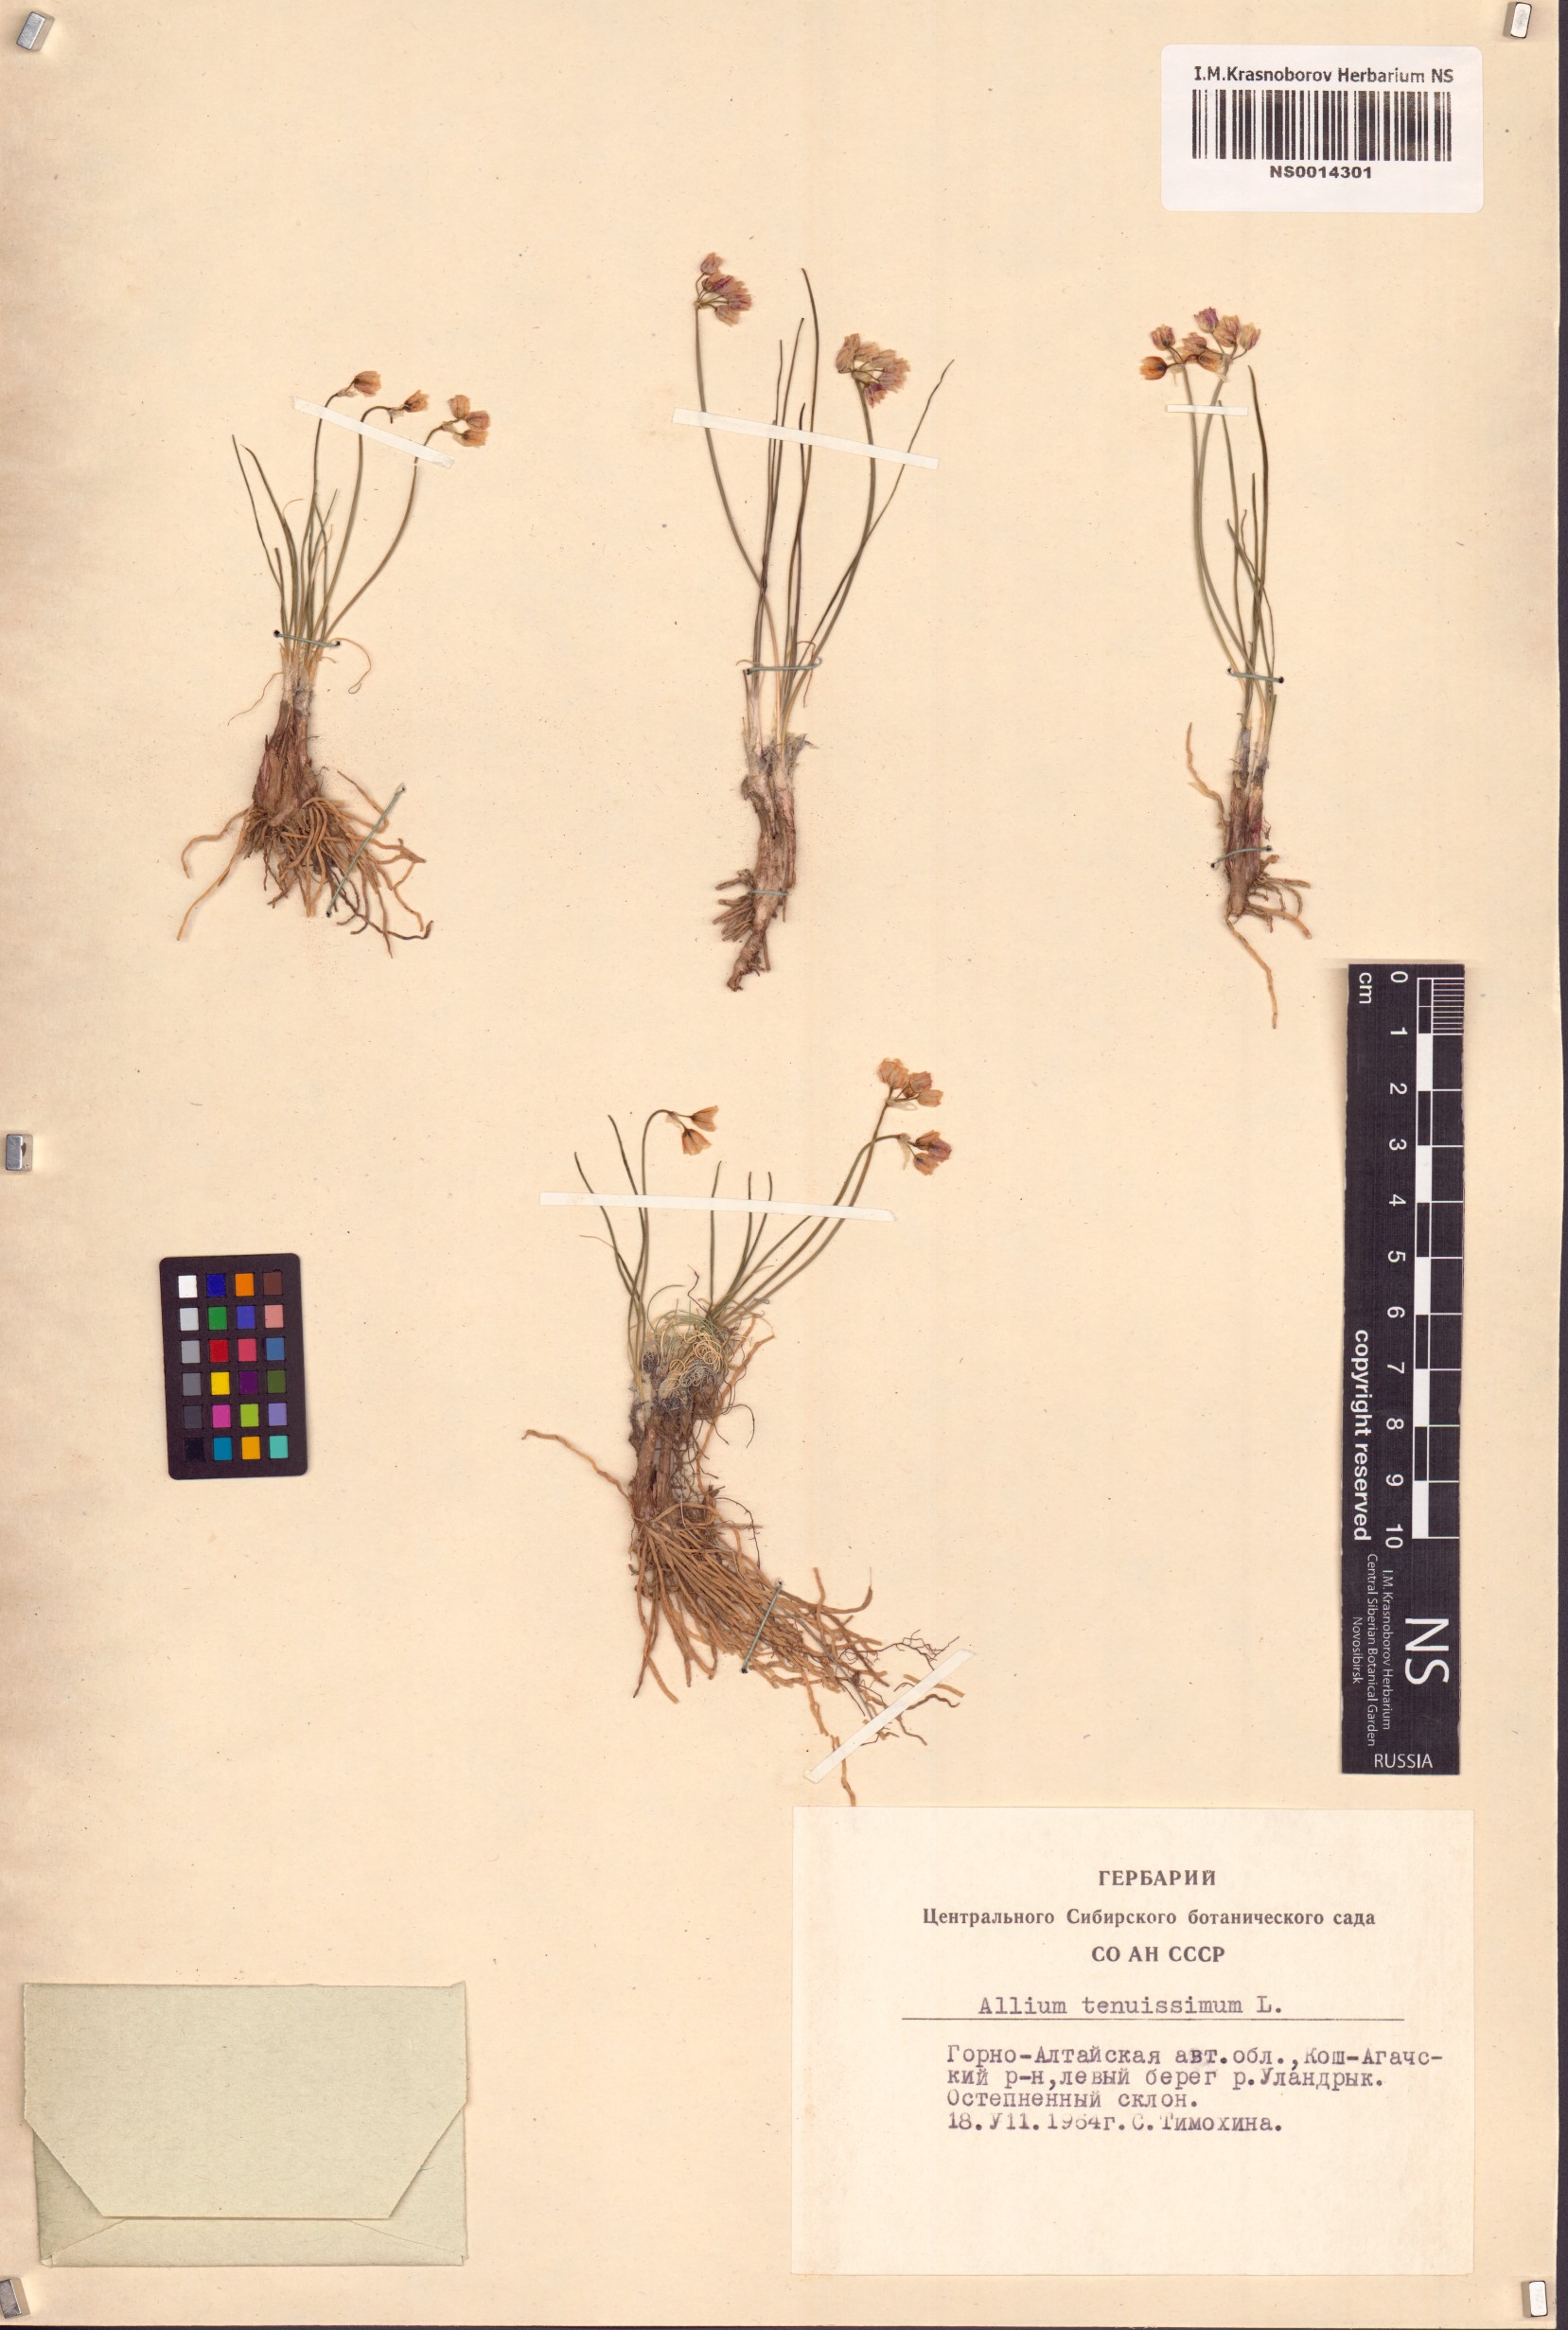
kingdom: Plantae
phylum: Tracheophyta
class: Liliopsida
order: Asparagales
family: Amaryllidaceae
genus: Allium
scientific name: Allium tenuissimum
